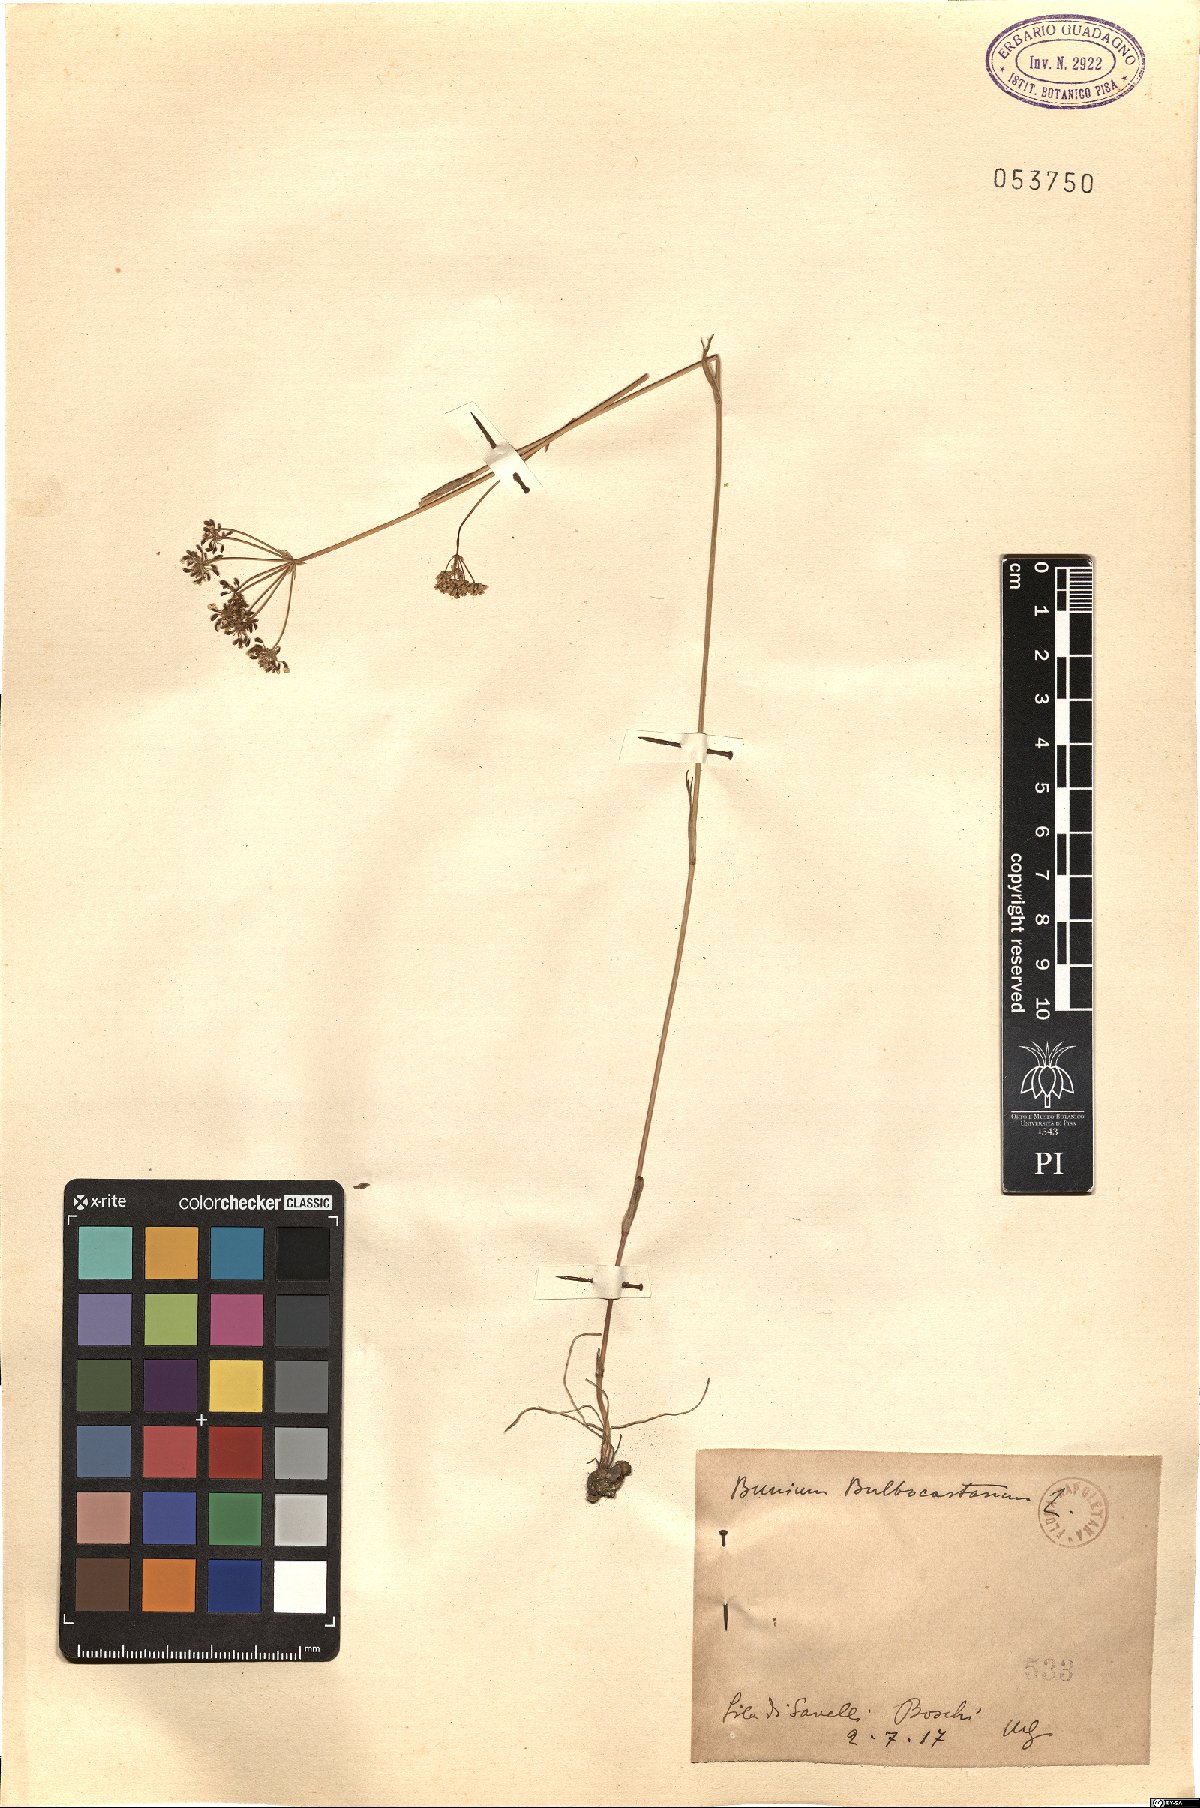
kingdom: Plantae
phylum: Tracheophyta
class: Magnoliopsida
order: Apiales
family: Apiaceae
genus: Bunium
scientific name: Bunium bulbocastanum
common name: Great pignut
